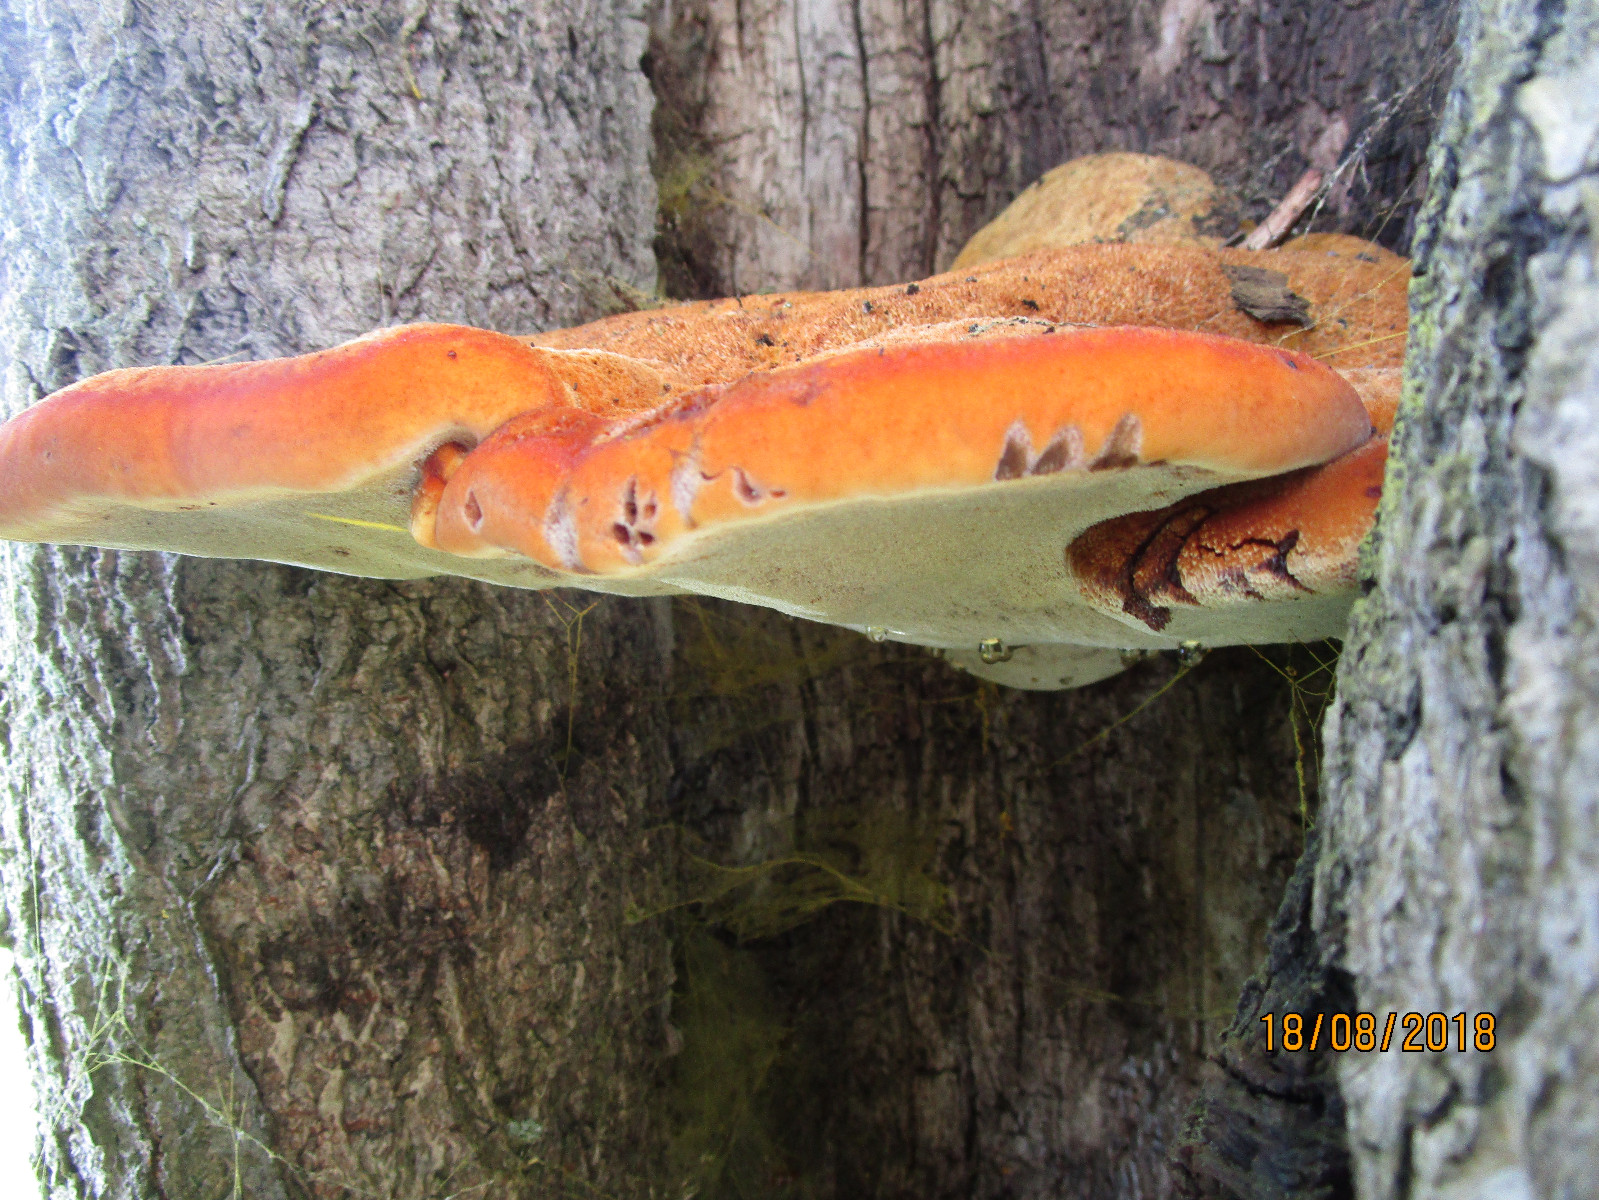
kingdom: Fungi
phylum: Basidiomycota
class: Agaricomycetes
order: Hymenochaetales
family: Hymenochaetaceae
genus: Inonotus
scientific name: Inonotus hispidus
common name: børstehåret spejlporesvamp
